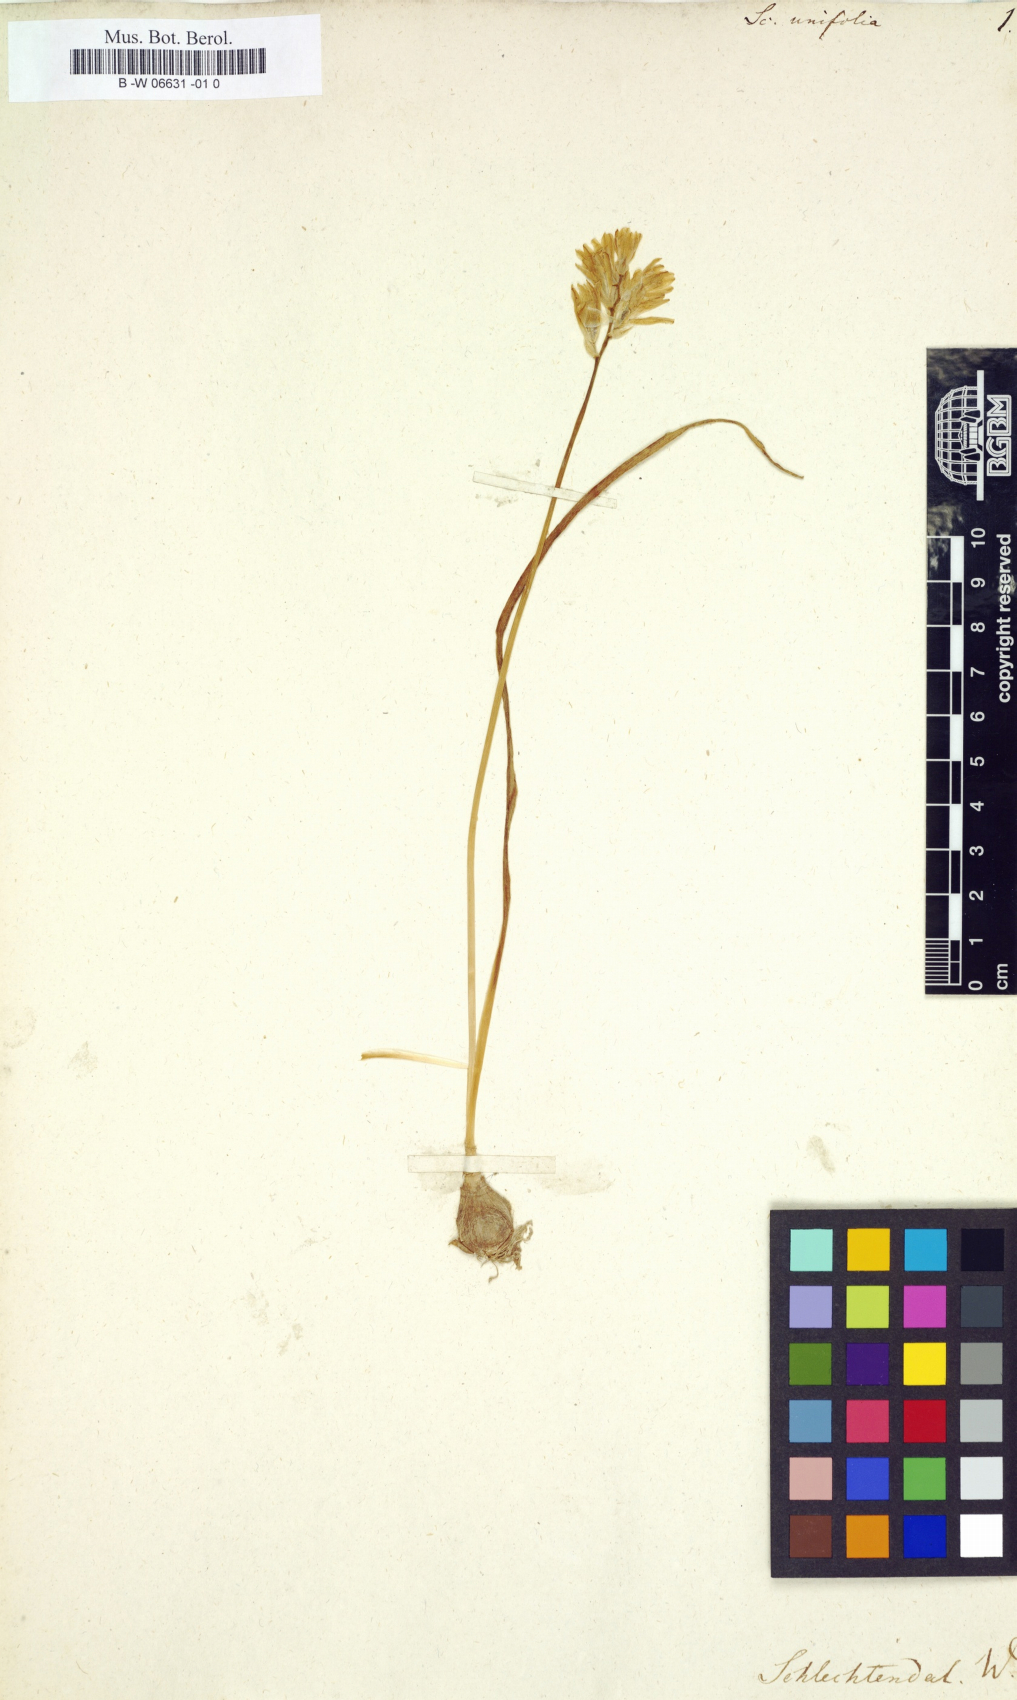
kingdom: Plantae
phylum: Tracheophyta
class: Liliopsida
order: Asparagales
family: Asparagaceae
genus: Ornithogalum
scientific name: Ornithogalum broteroi
